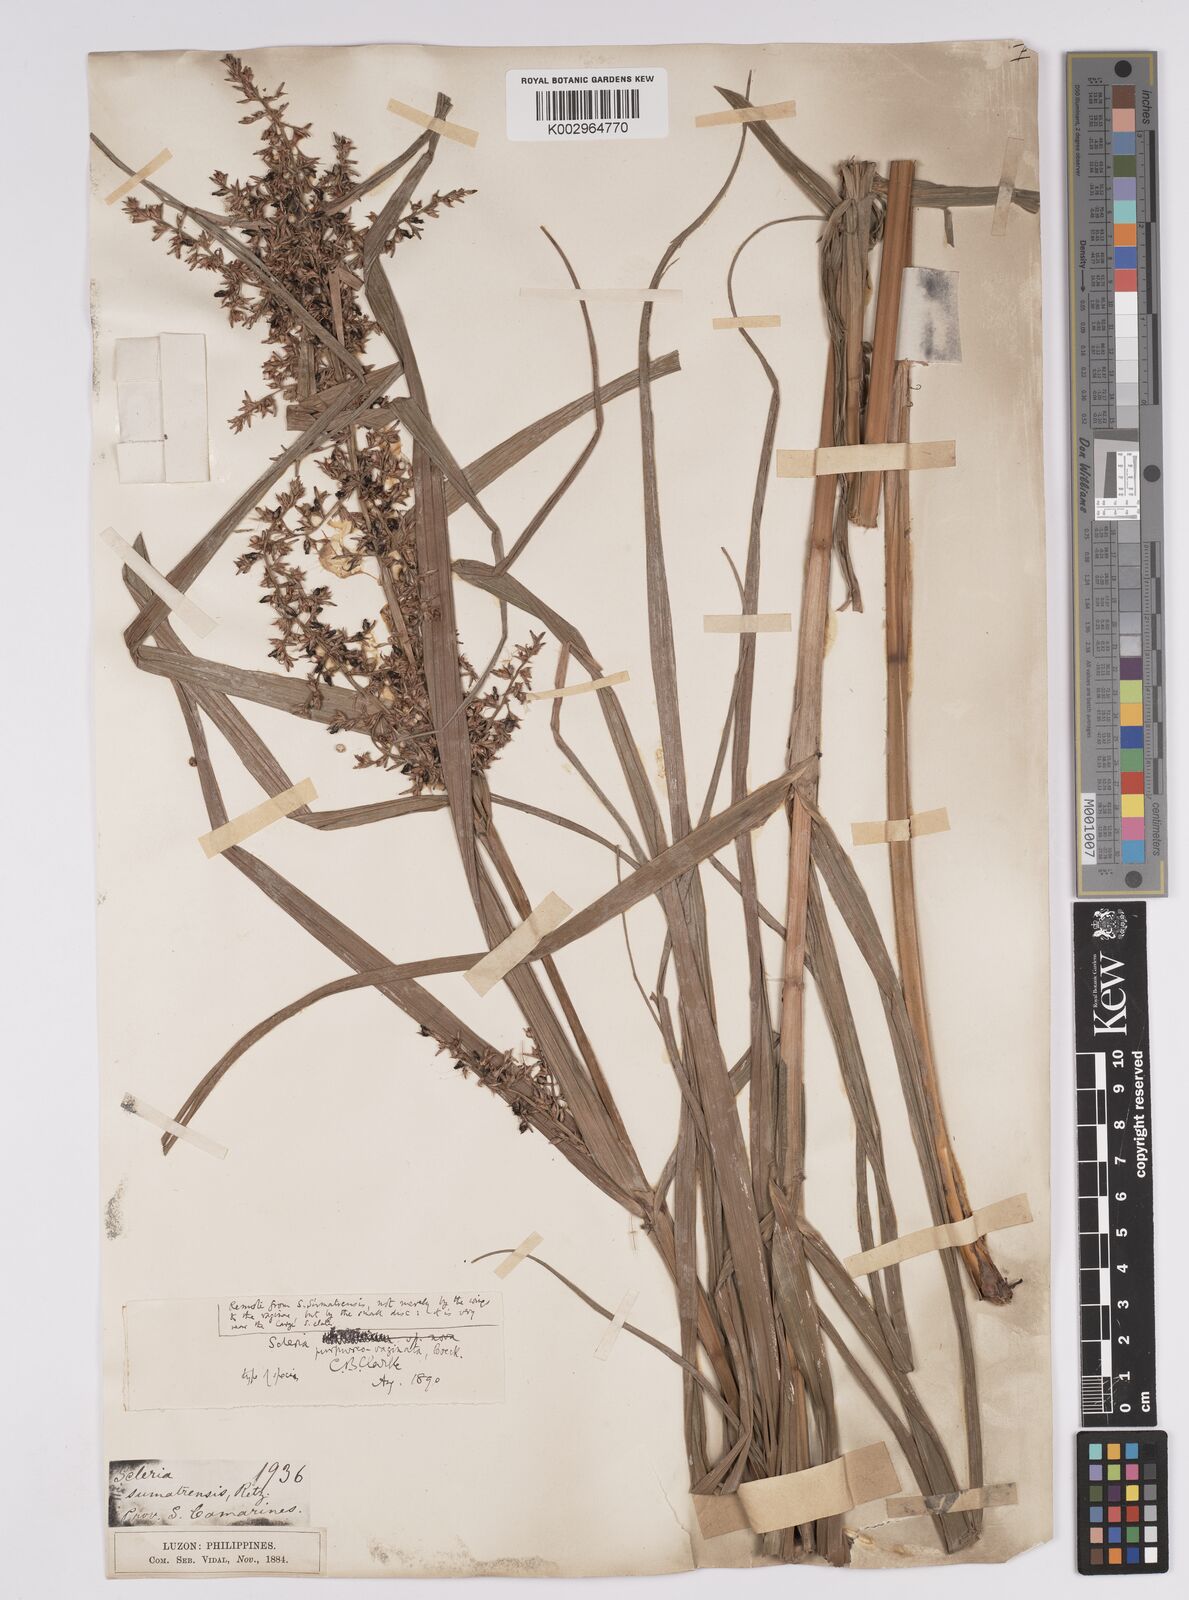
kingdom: Plantae
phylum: Tracheophyta
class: Liliopsida
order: Poales
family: Cyperaceae
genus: Scleria
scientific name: Scleria scrobiculata
